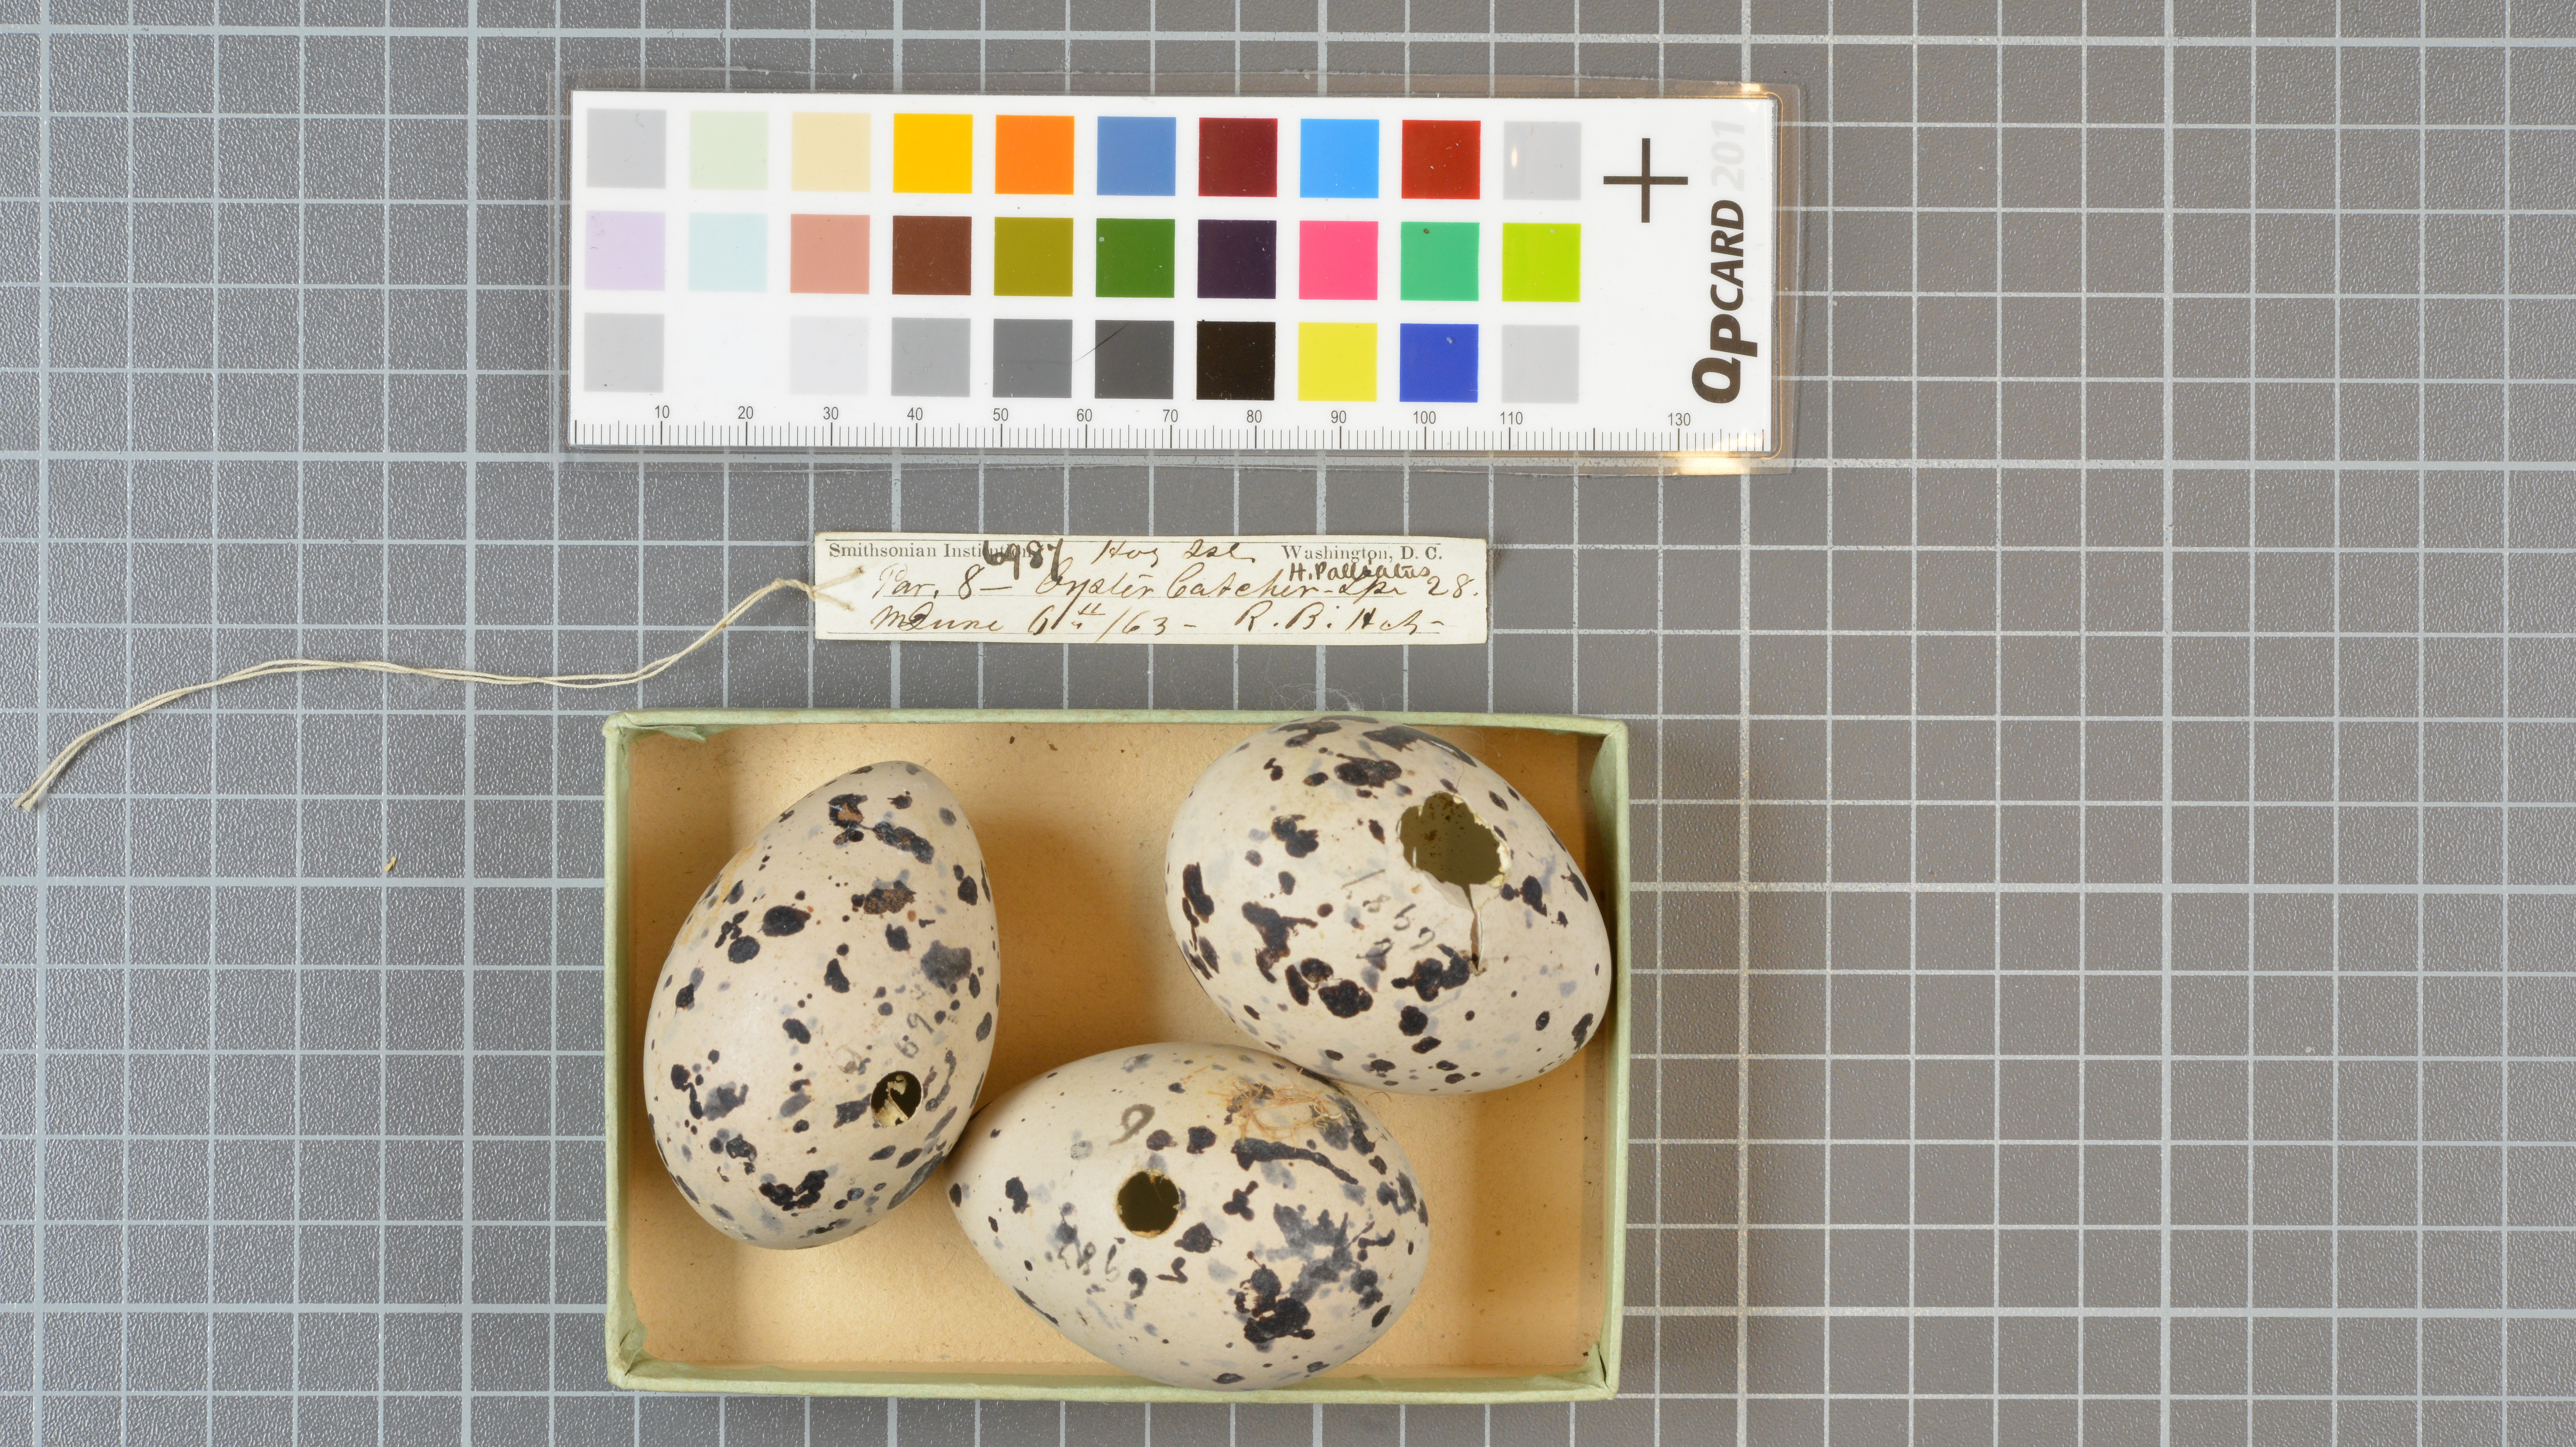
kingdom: Animalia
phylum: Chordata
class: Aves
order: Charadriiformes
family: Haematopodidae
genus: Haematopus
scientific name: Haematopus palliatus
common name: American oystercatcher
